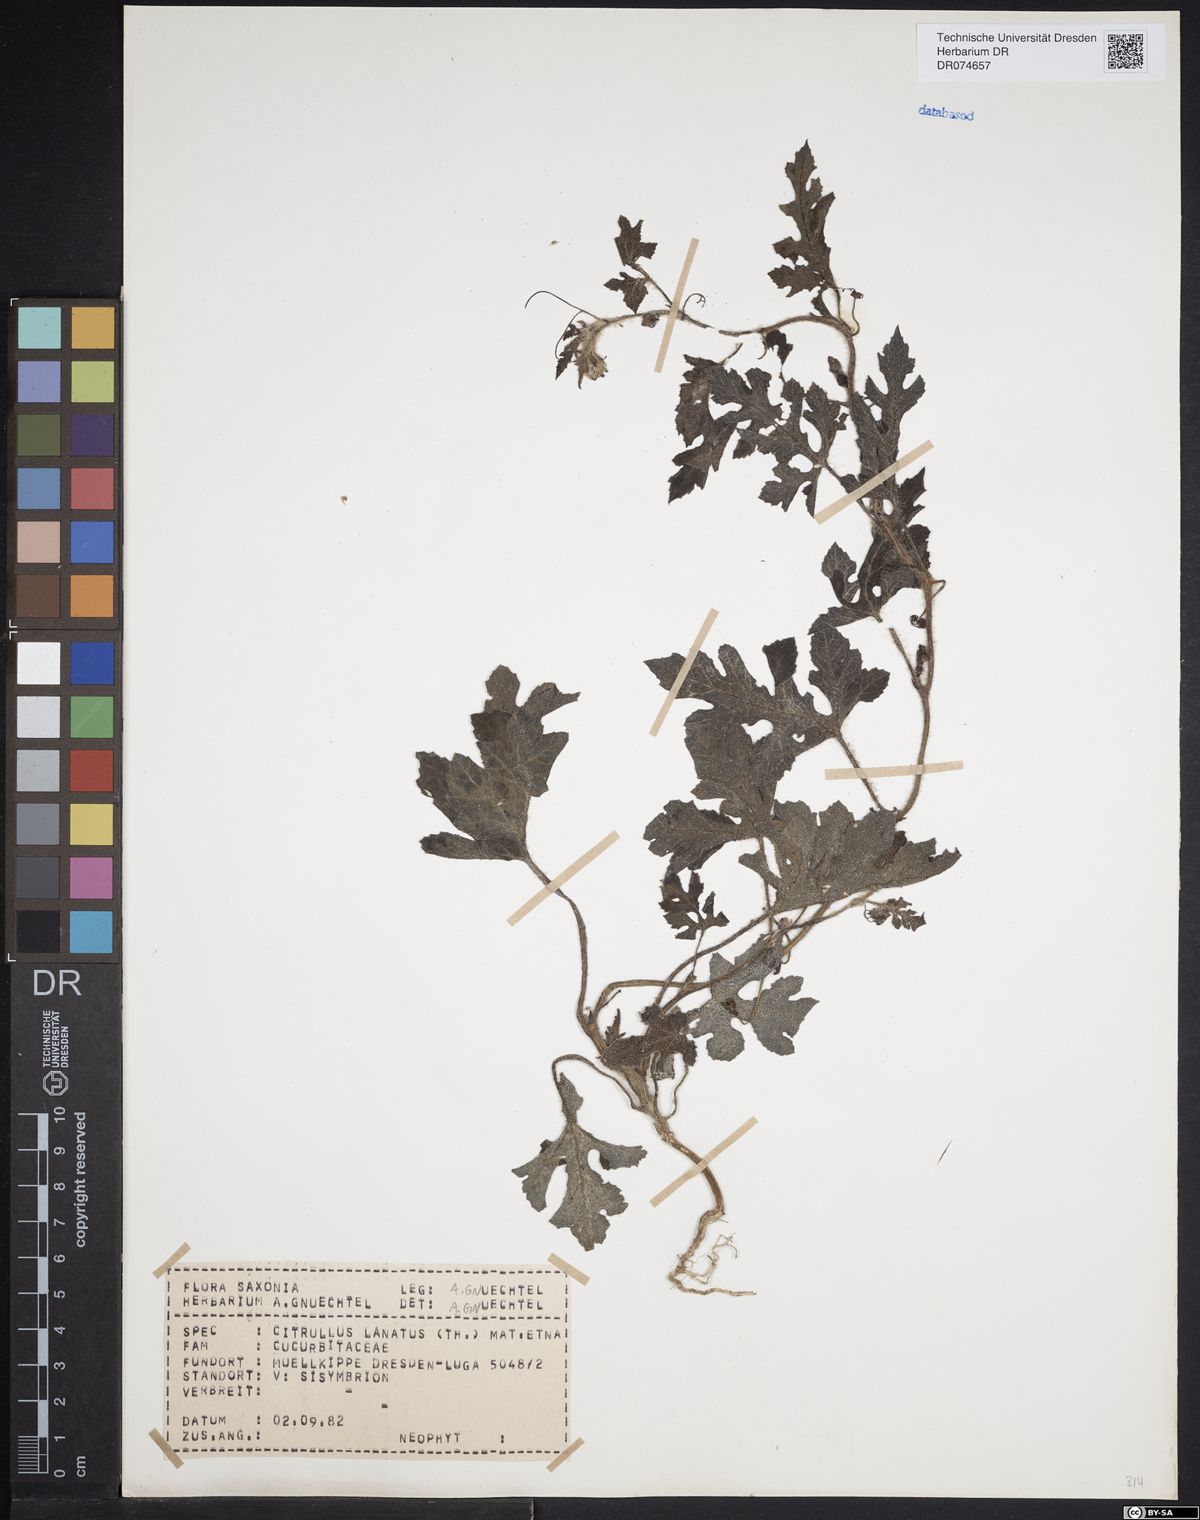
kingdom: Plantae
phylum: Tracheophyta
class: Magnoliopsida
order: Cucurbitales
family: Cucurbitaceae
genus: Citrullus
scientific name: Citrullus lanatus
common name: Watermelon
